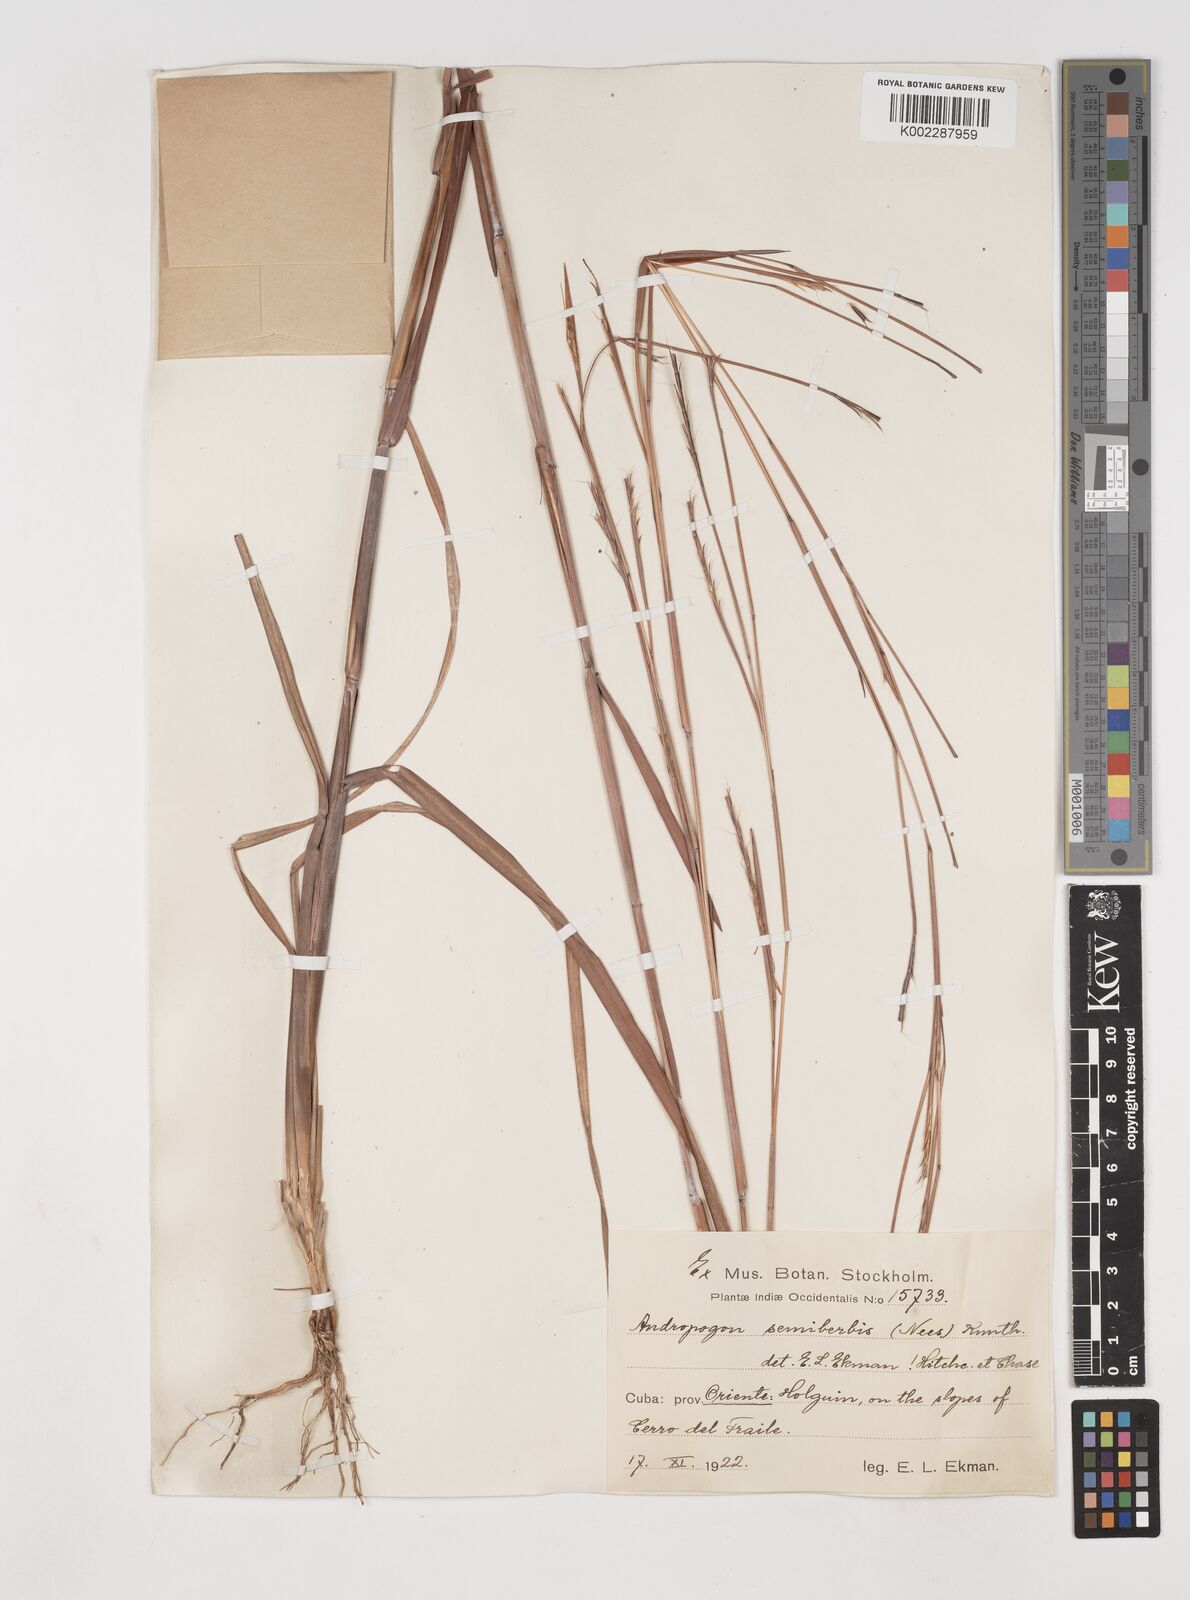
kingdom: Plantae
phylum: Tracheophyta
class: Liliopsida
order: Poales
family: Poaceae
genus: Schizachyrium
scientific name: Schizachyrium sanguineum
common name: Crimson bluestem
